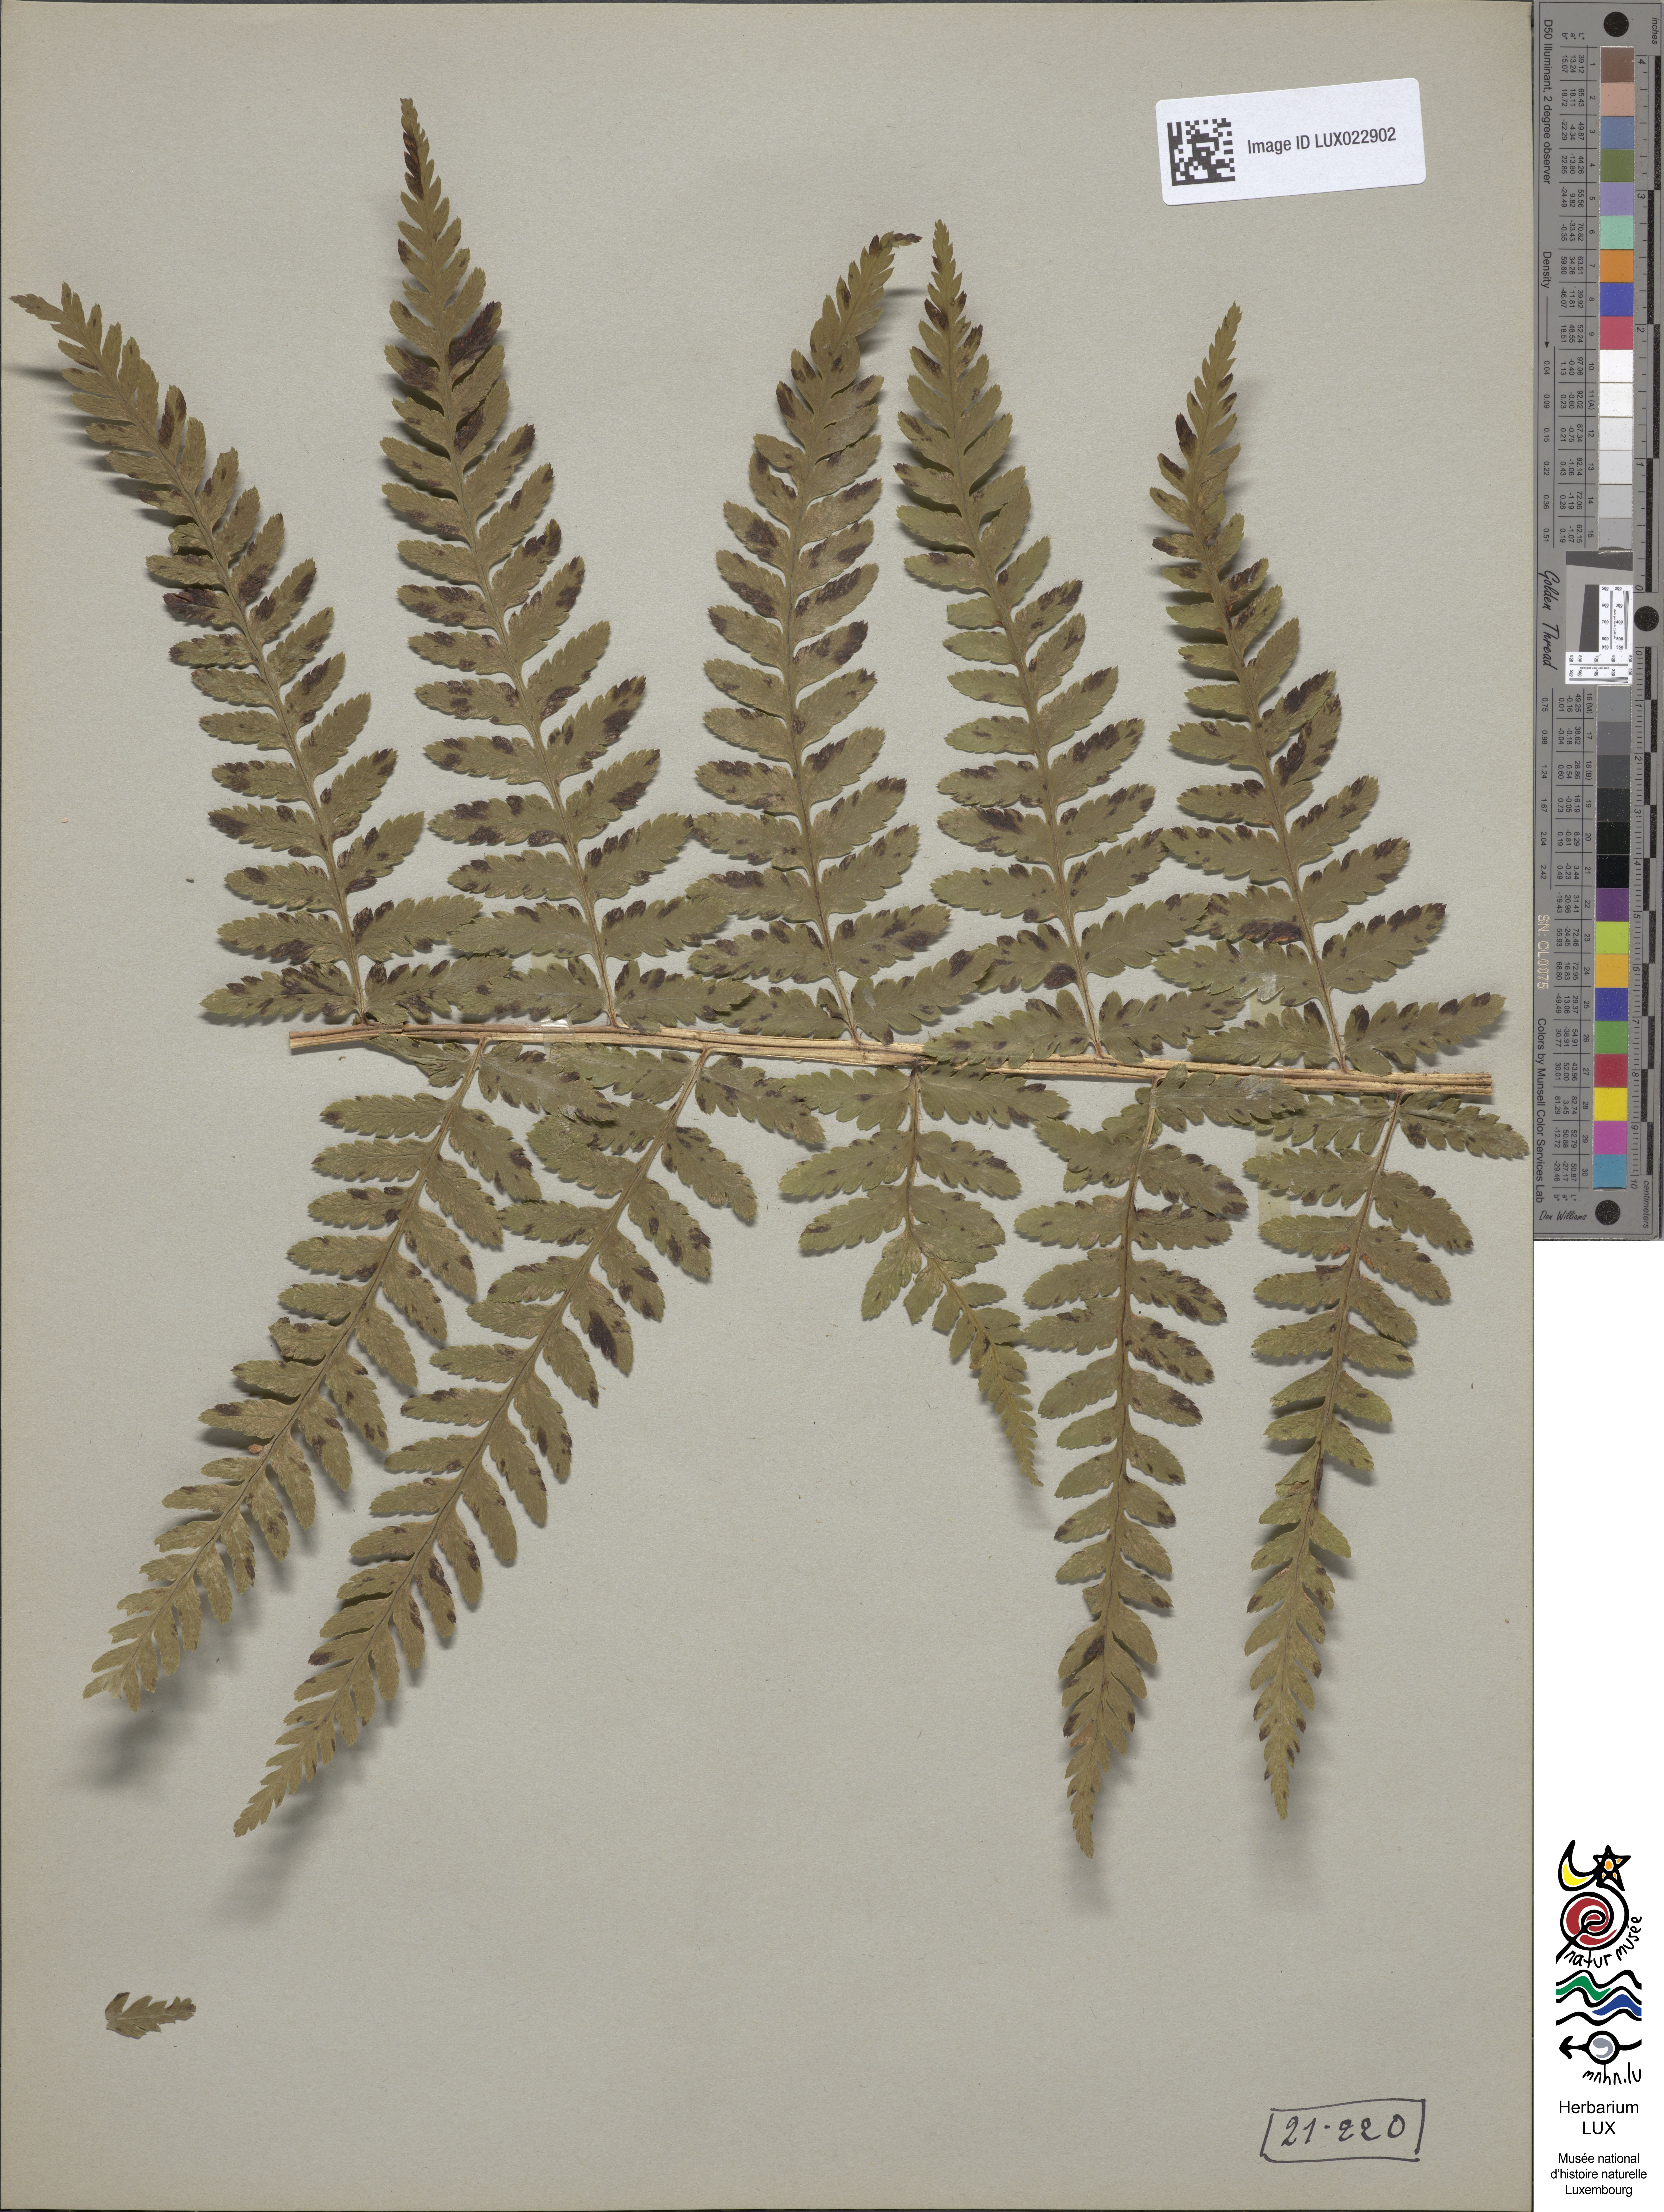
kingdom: Plantae
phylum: Tracheophyta
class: Polypodiopsida
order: Polypodiales
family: Dryopteridaceae
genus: Dryopteris
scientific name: Dryopteris filix-mas
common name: Male fern
